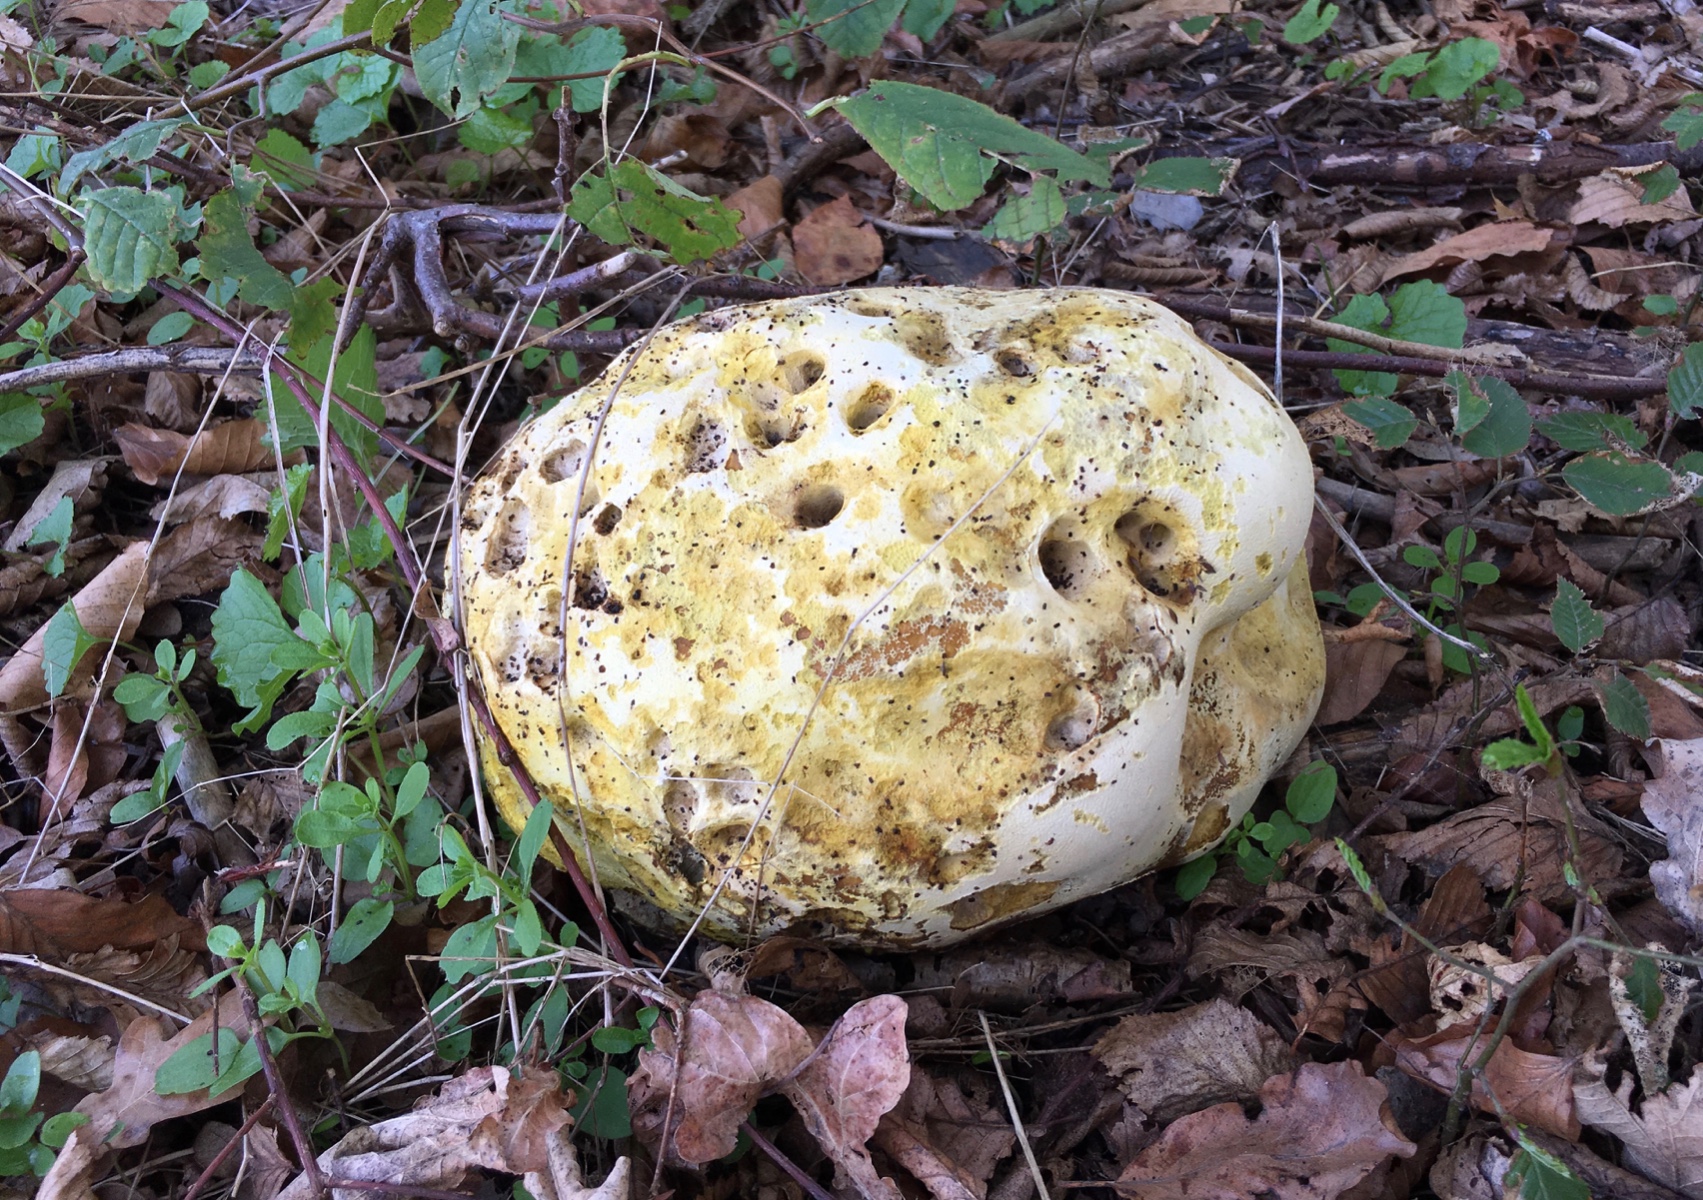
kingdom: Fungi
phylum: Basidiomycota
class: Agaricomycetes
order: Agaricales
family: Lycoperdaceae
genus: Calvatia
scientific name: Calvatia gigantea
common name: kæmpestøvbold
